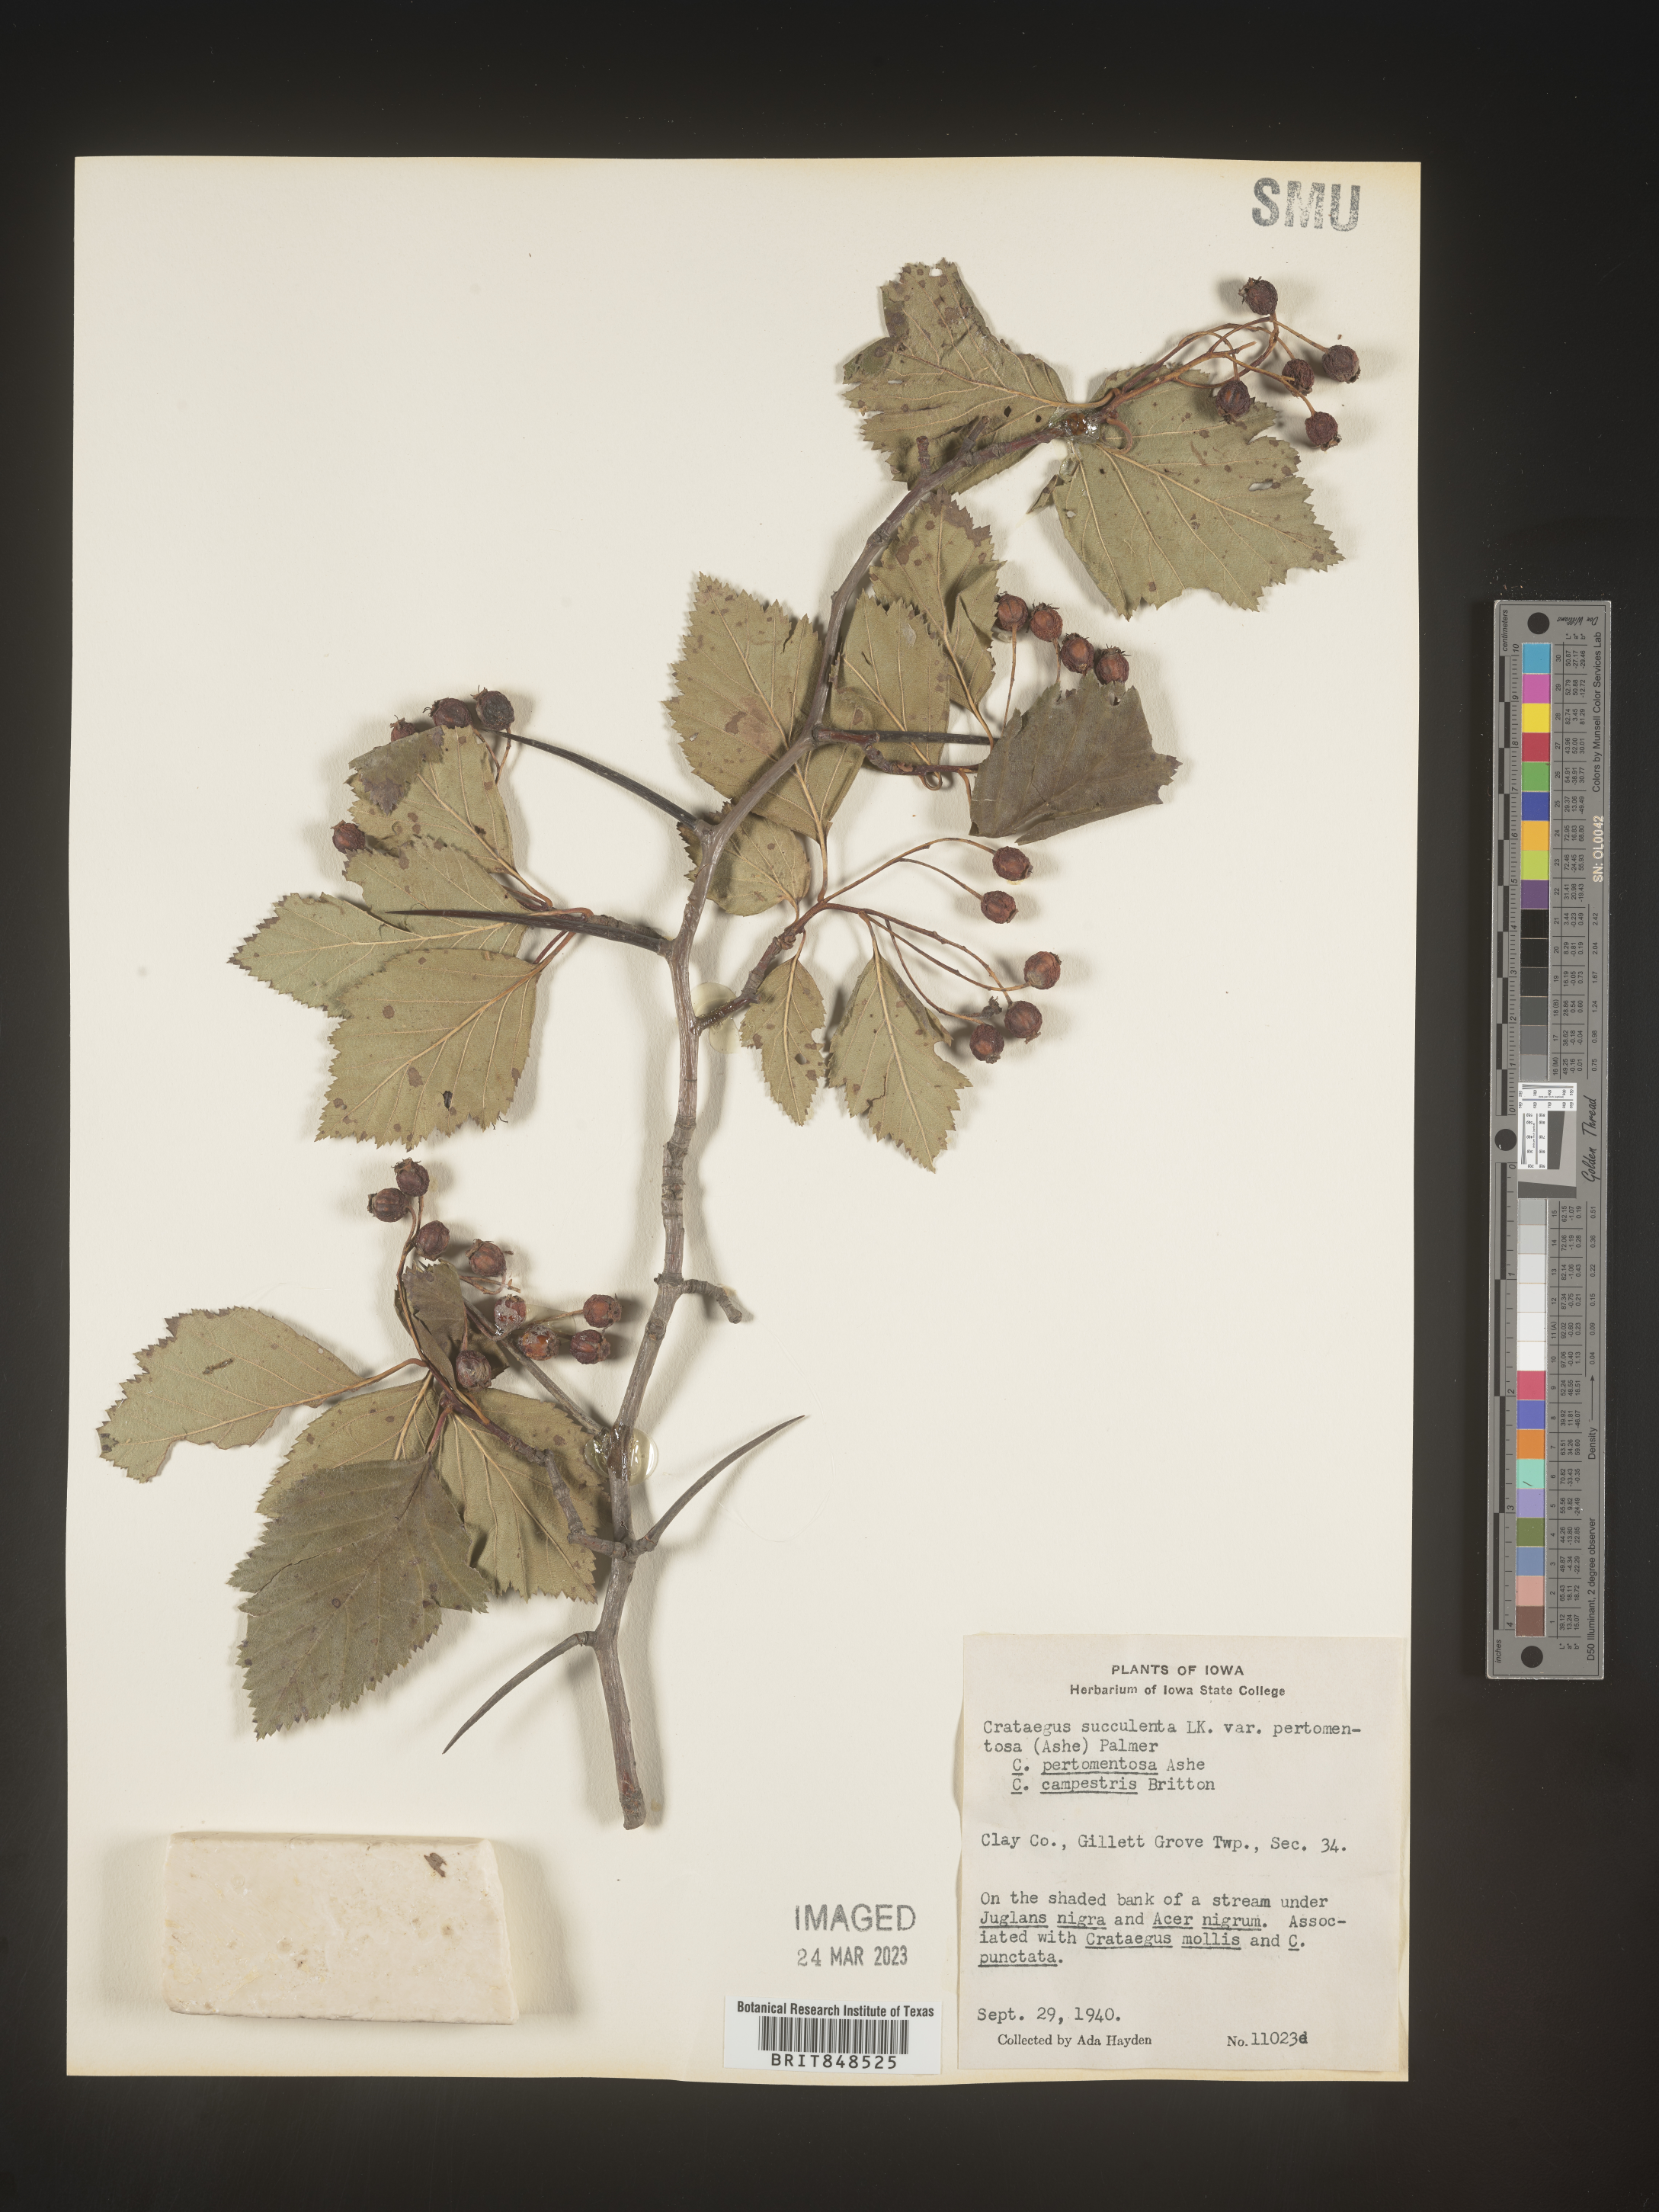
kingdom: Plantae
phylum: Tracheophyta
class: Magnoliopsida
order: Rosales
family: Rosaceae
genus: Crataegus
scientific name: Crataegus succulenta
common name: Fleshy hawthorn
